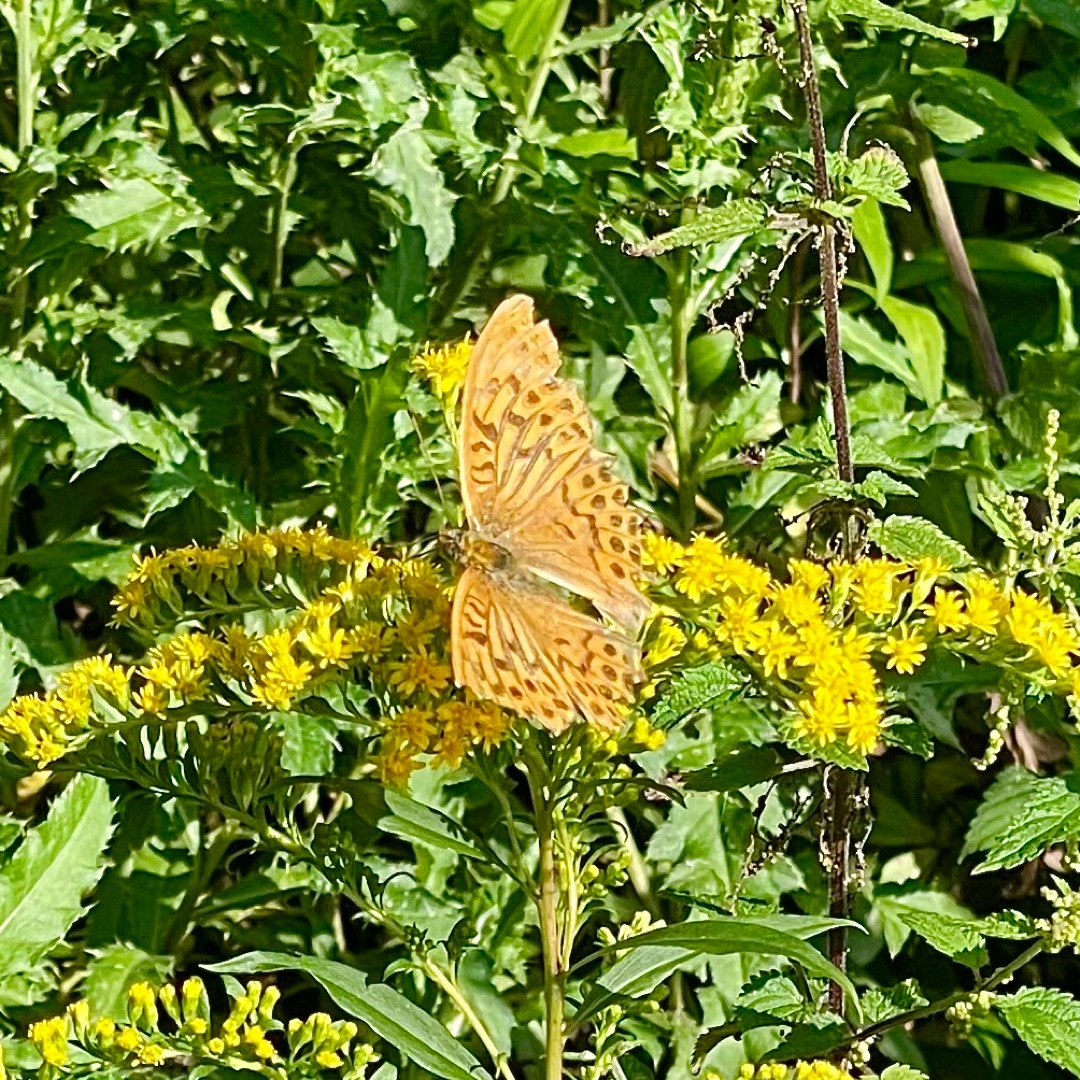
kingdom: Animalia
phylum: Arthropoda
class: Insecta
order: Lepidoptera
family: Nymphalidae
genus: Argynnis
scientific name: Argynnis paphia
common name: Kejserkåbe
